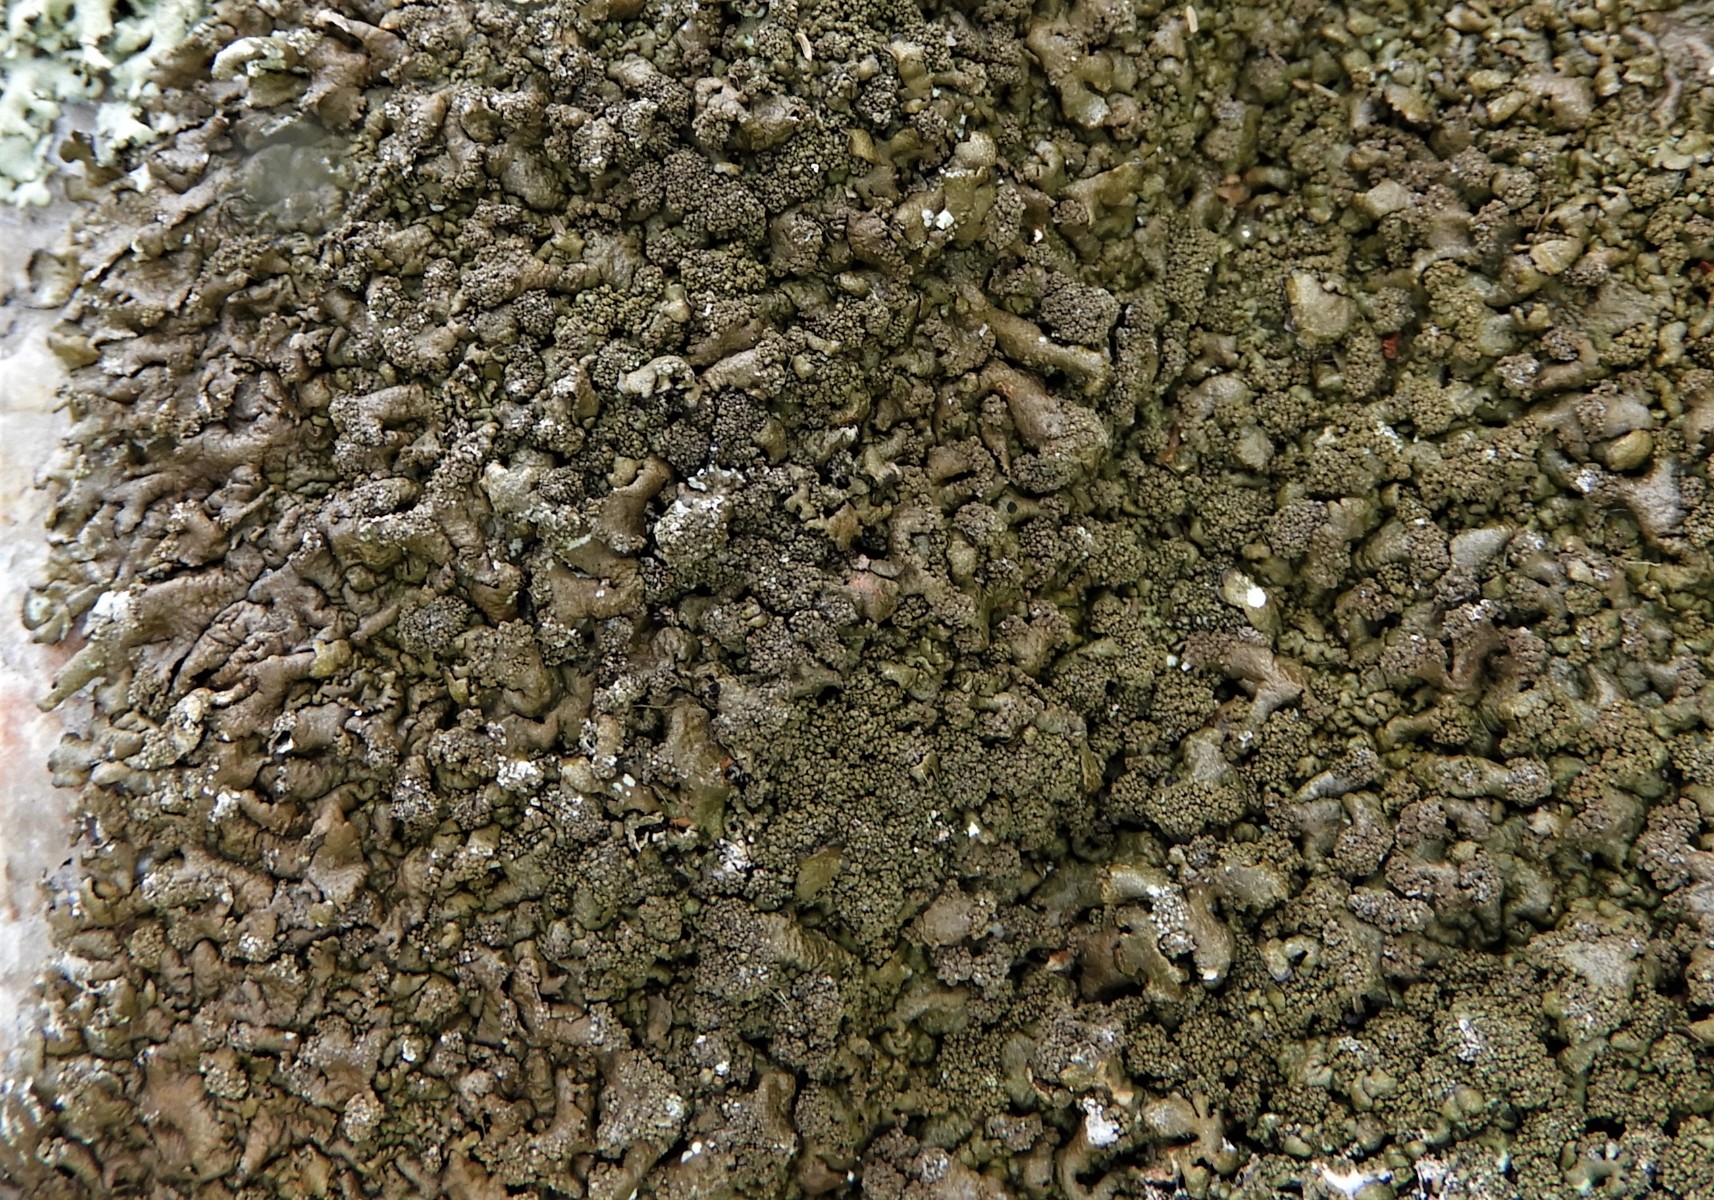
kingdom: Fungi
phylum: Ascomycota
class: Lecanoromycetes
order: Lecanorales
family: Parmeliaceae
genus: Xanthoparmelia
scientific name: Xanthoparmelia verruculifera
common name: småknoppet skållav
